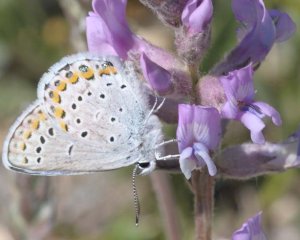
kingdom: Animalia
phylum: Arthropoda
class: Insecta
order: Lepidoptera
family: Lycaenidae
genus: Lycaeides
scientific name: Lycaeides melissa
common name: Melissa Blue
